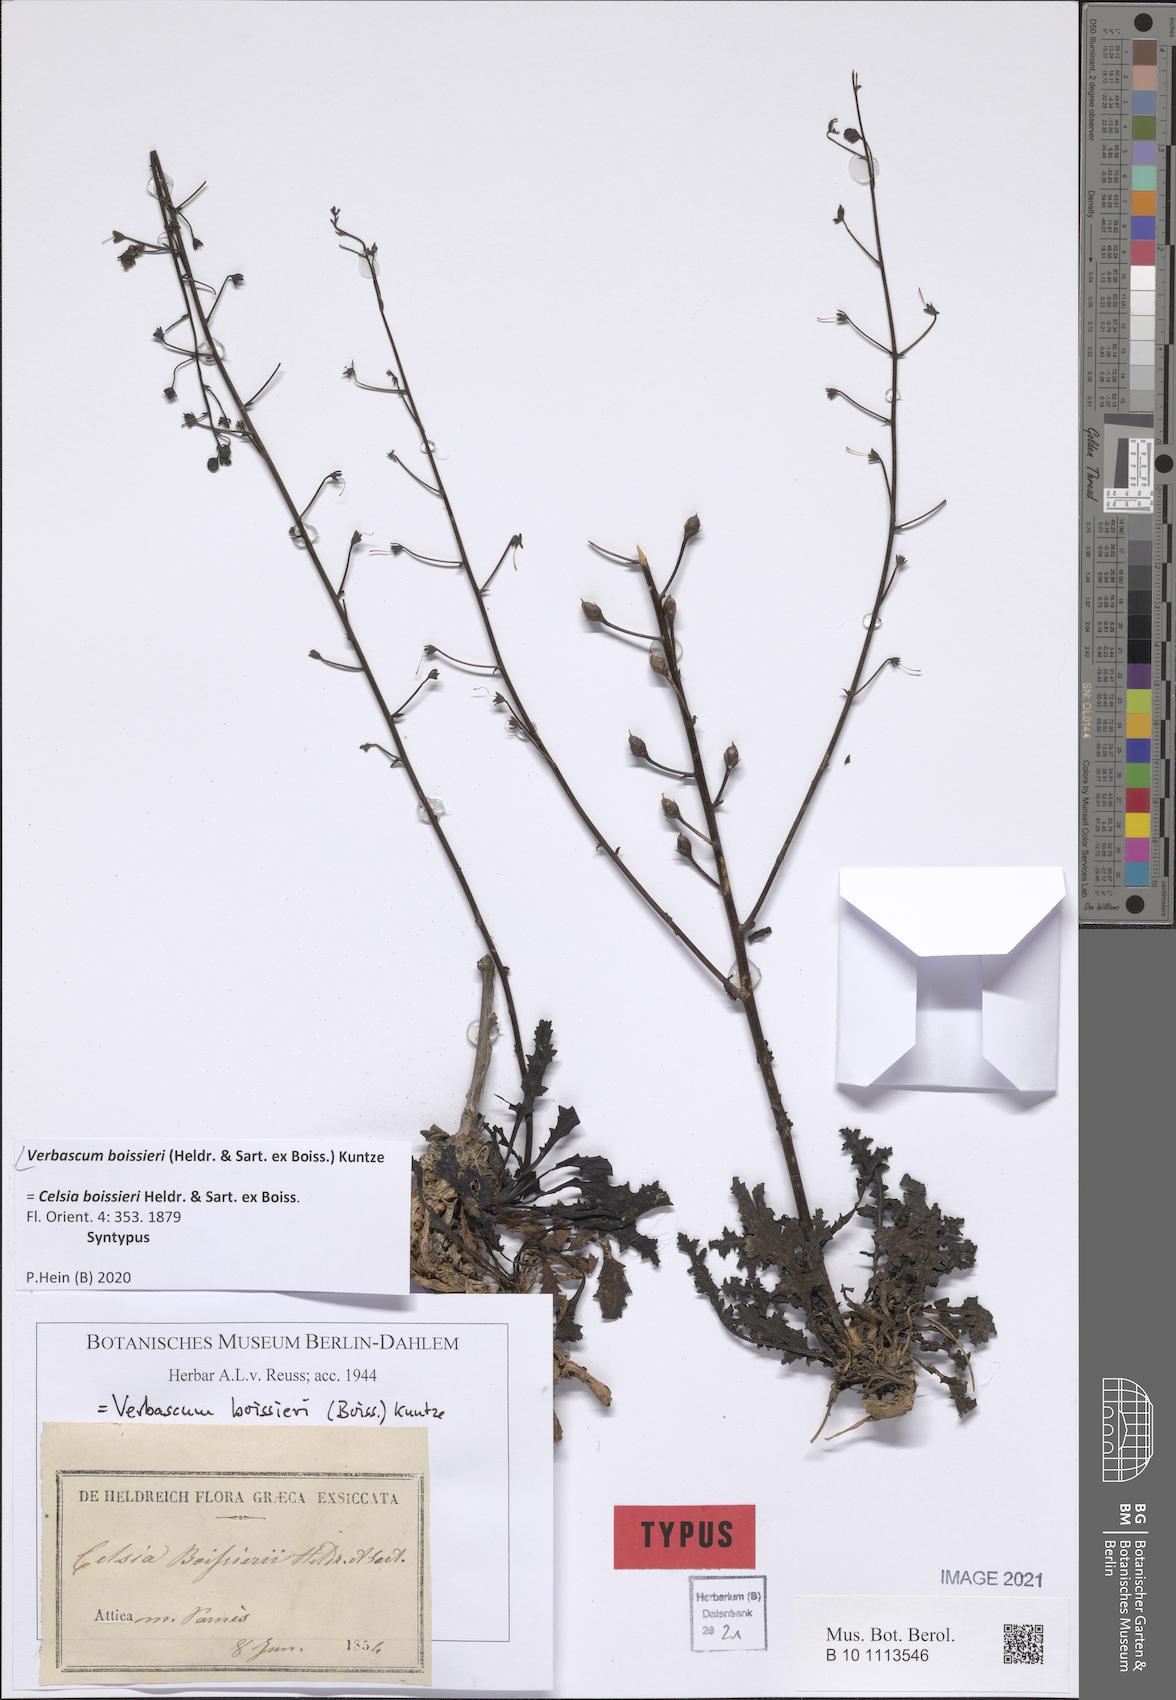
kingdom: Plantae
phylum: Tracheophyta
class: Magnoliopsida
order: Lamiales
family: Scrophulariaceae
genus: Verbascum
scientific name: Verbascum boissieri
